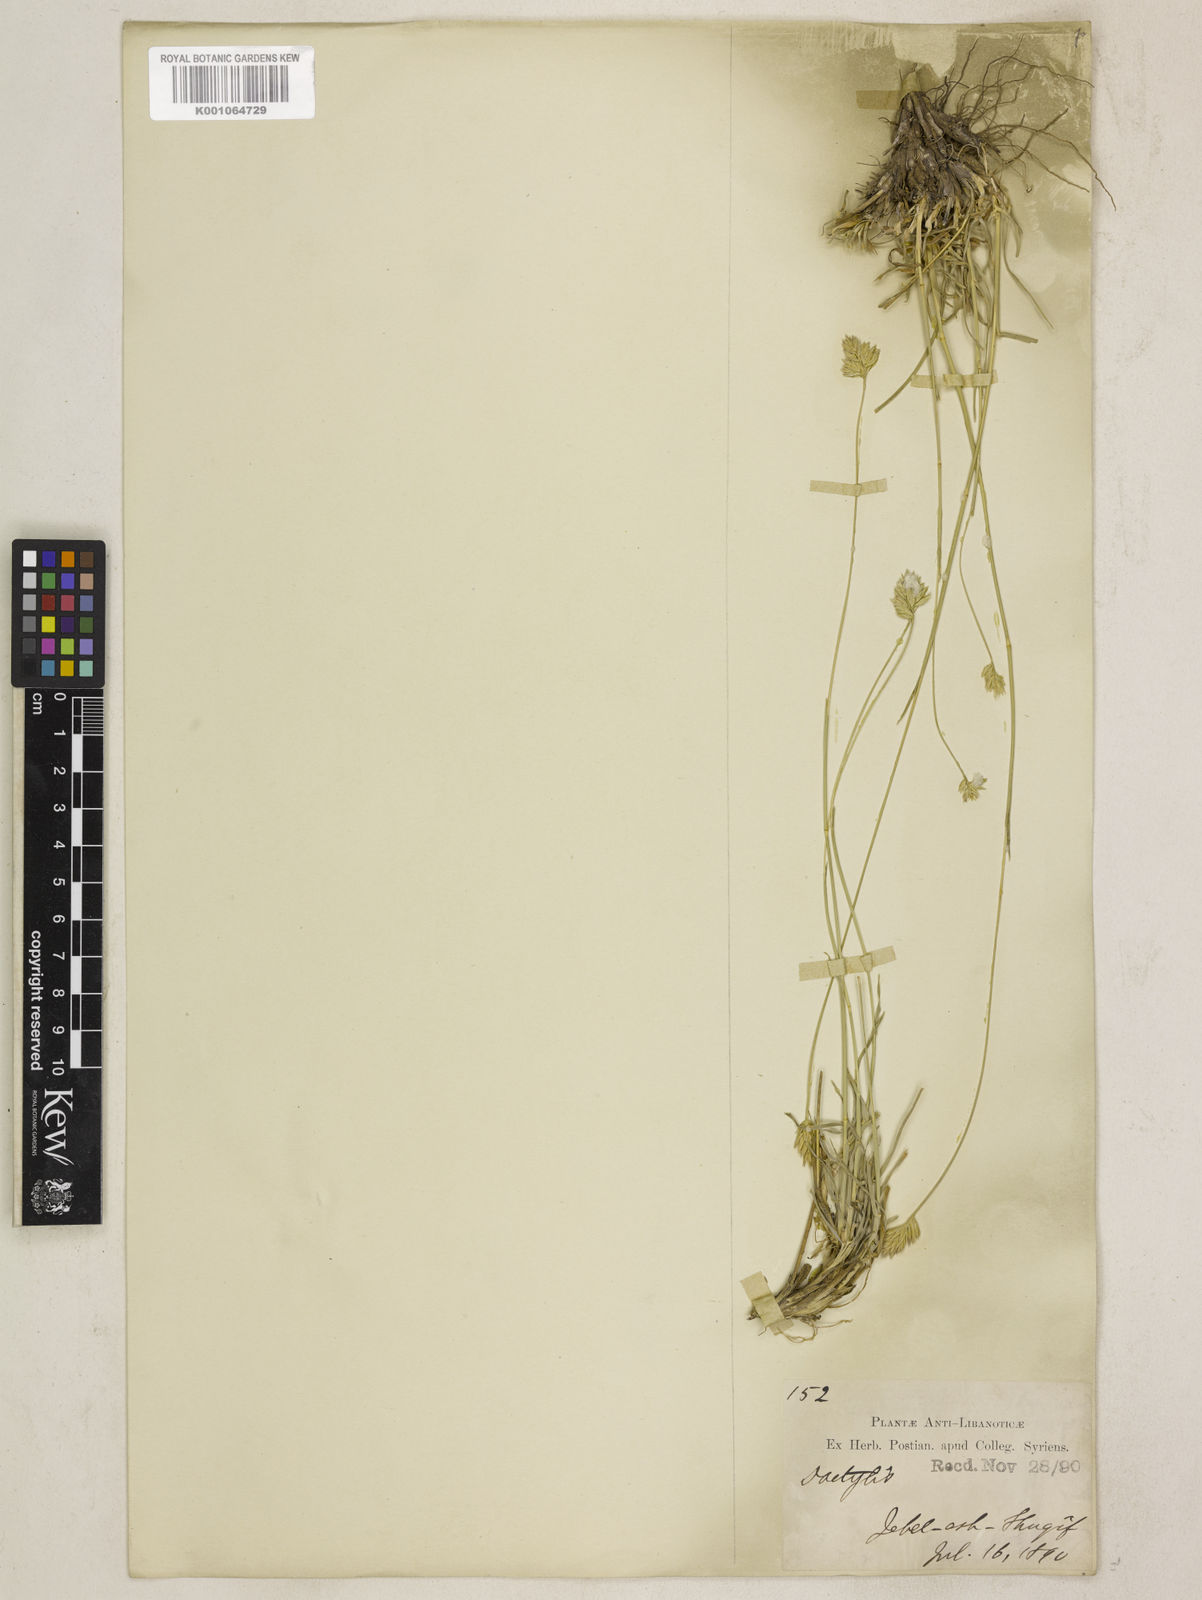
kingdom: Plantae
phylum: Tracheophyta
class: Liliopsida
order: Poales
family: Poaceae
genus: Dactylis
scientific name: Dactylis glomerata
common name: Orchardgrass
